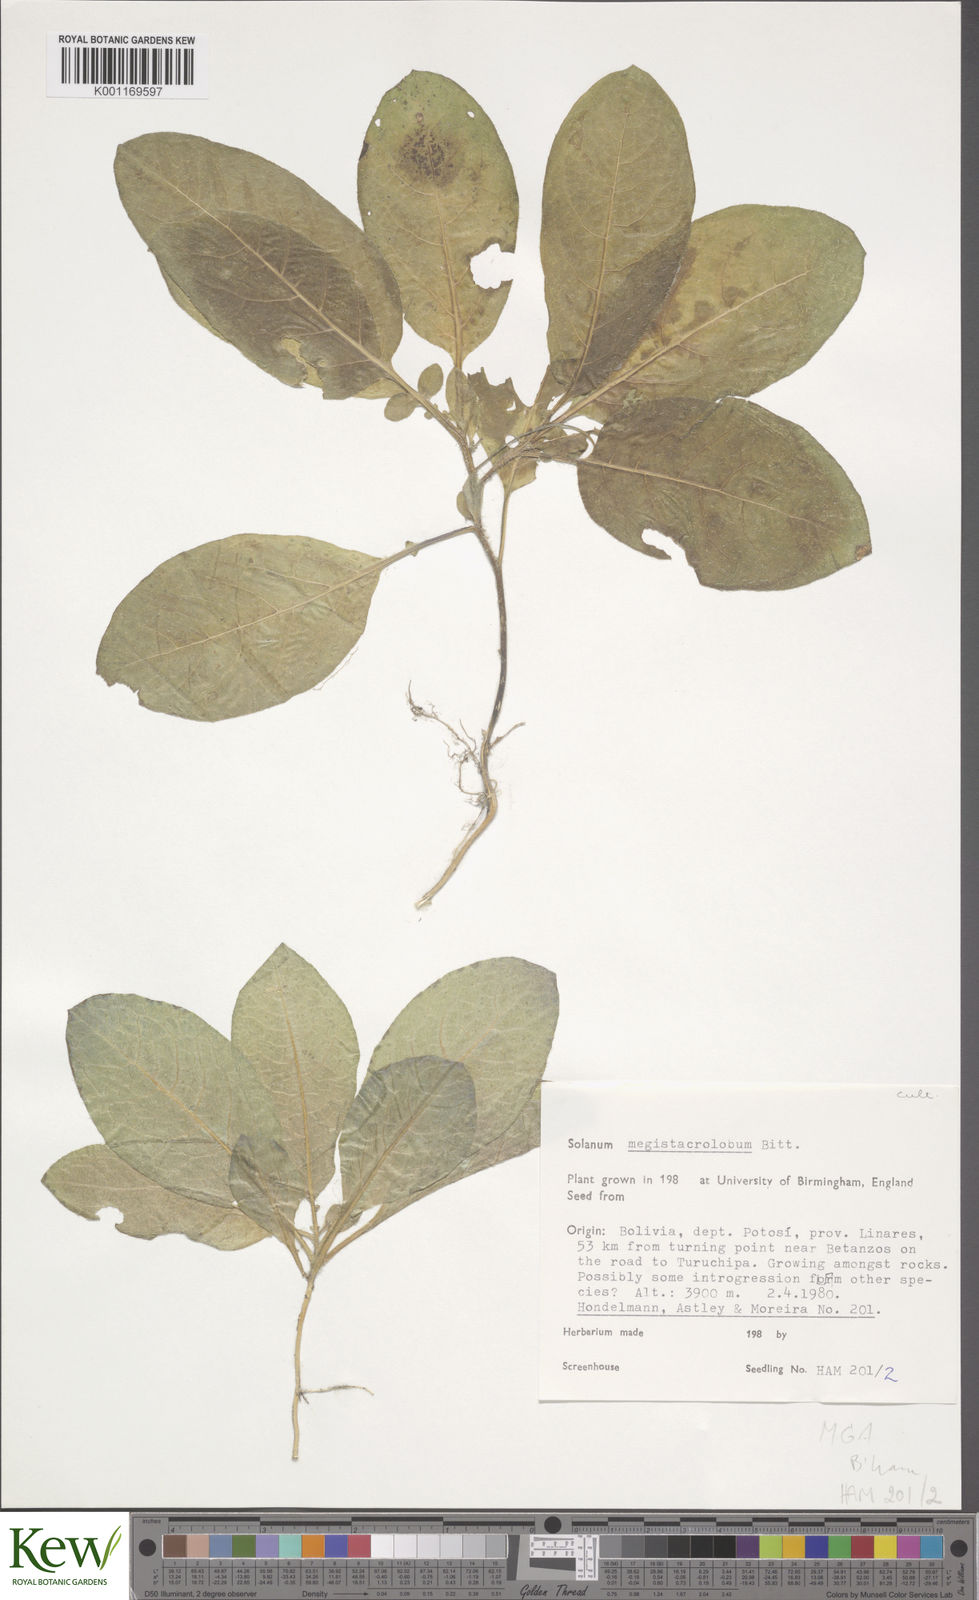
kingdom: Plantae
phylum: Tracheophyta
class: Magnoliopsida
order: Solanales
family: Solanaceae
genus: Solanum
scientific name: Solanum boliviense
